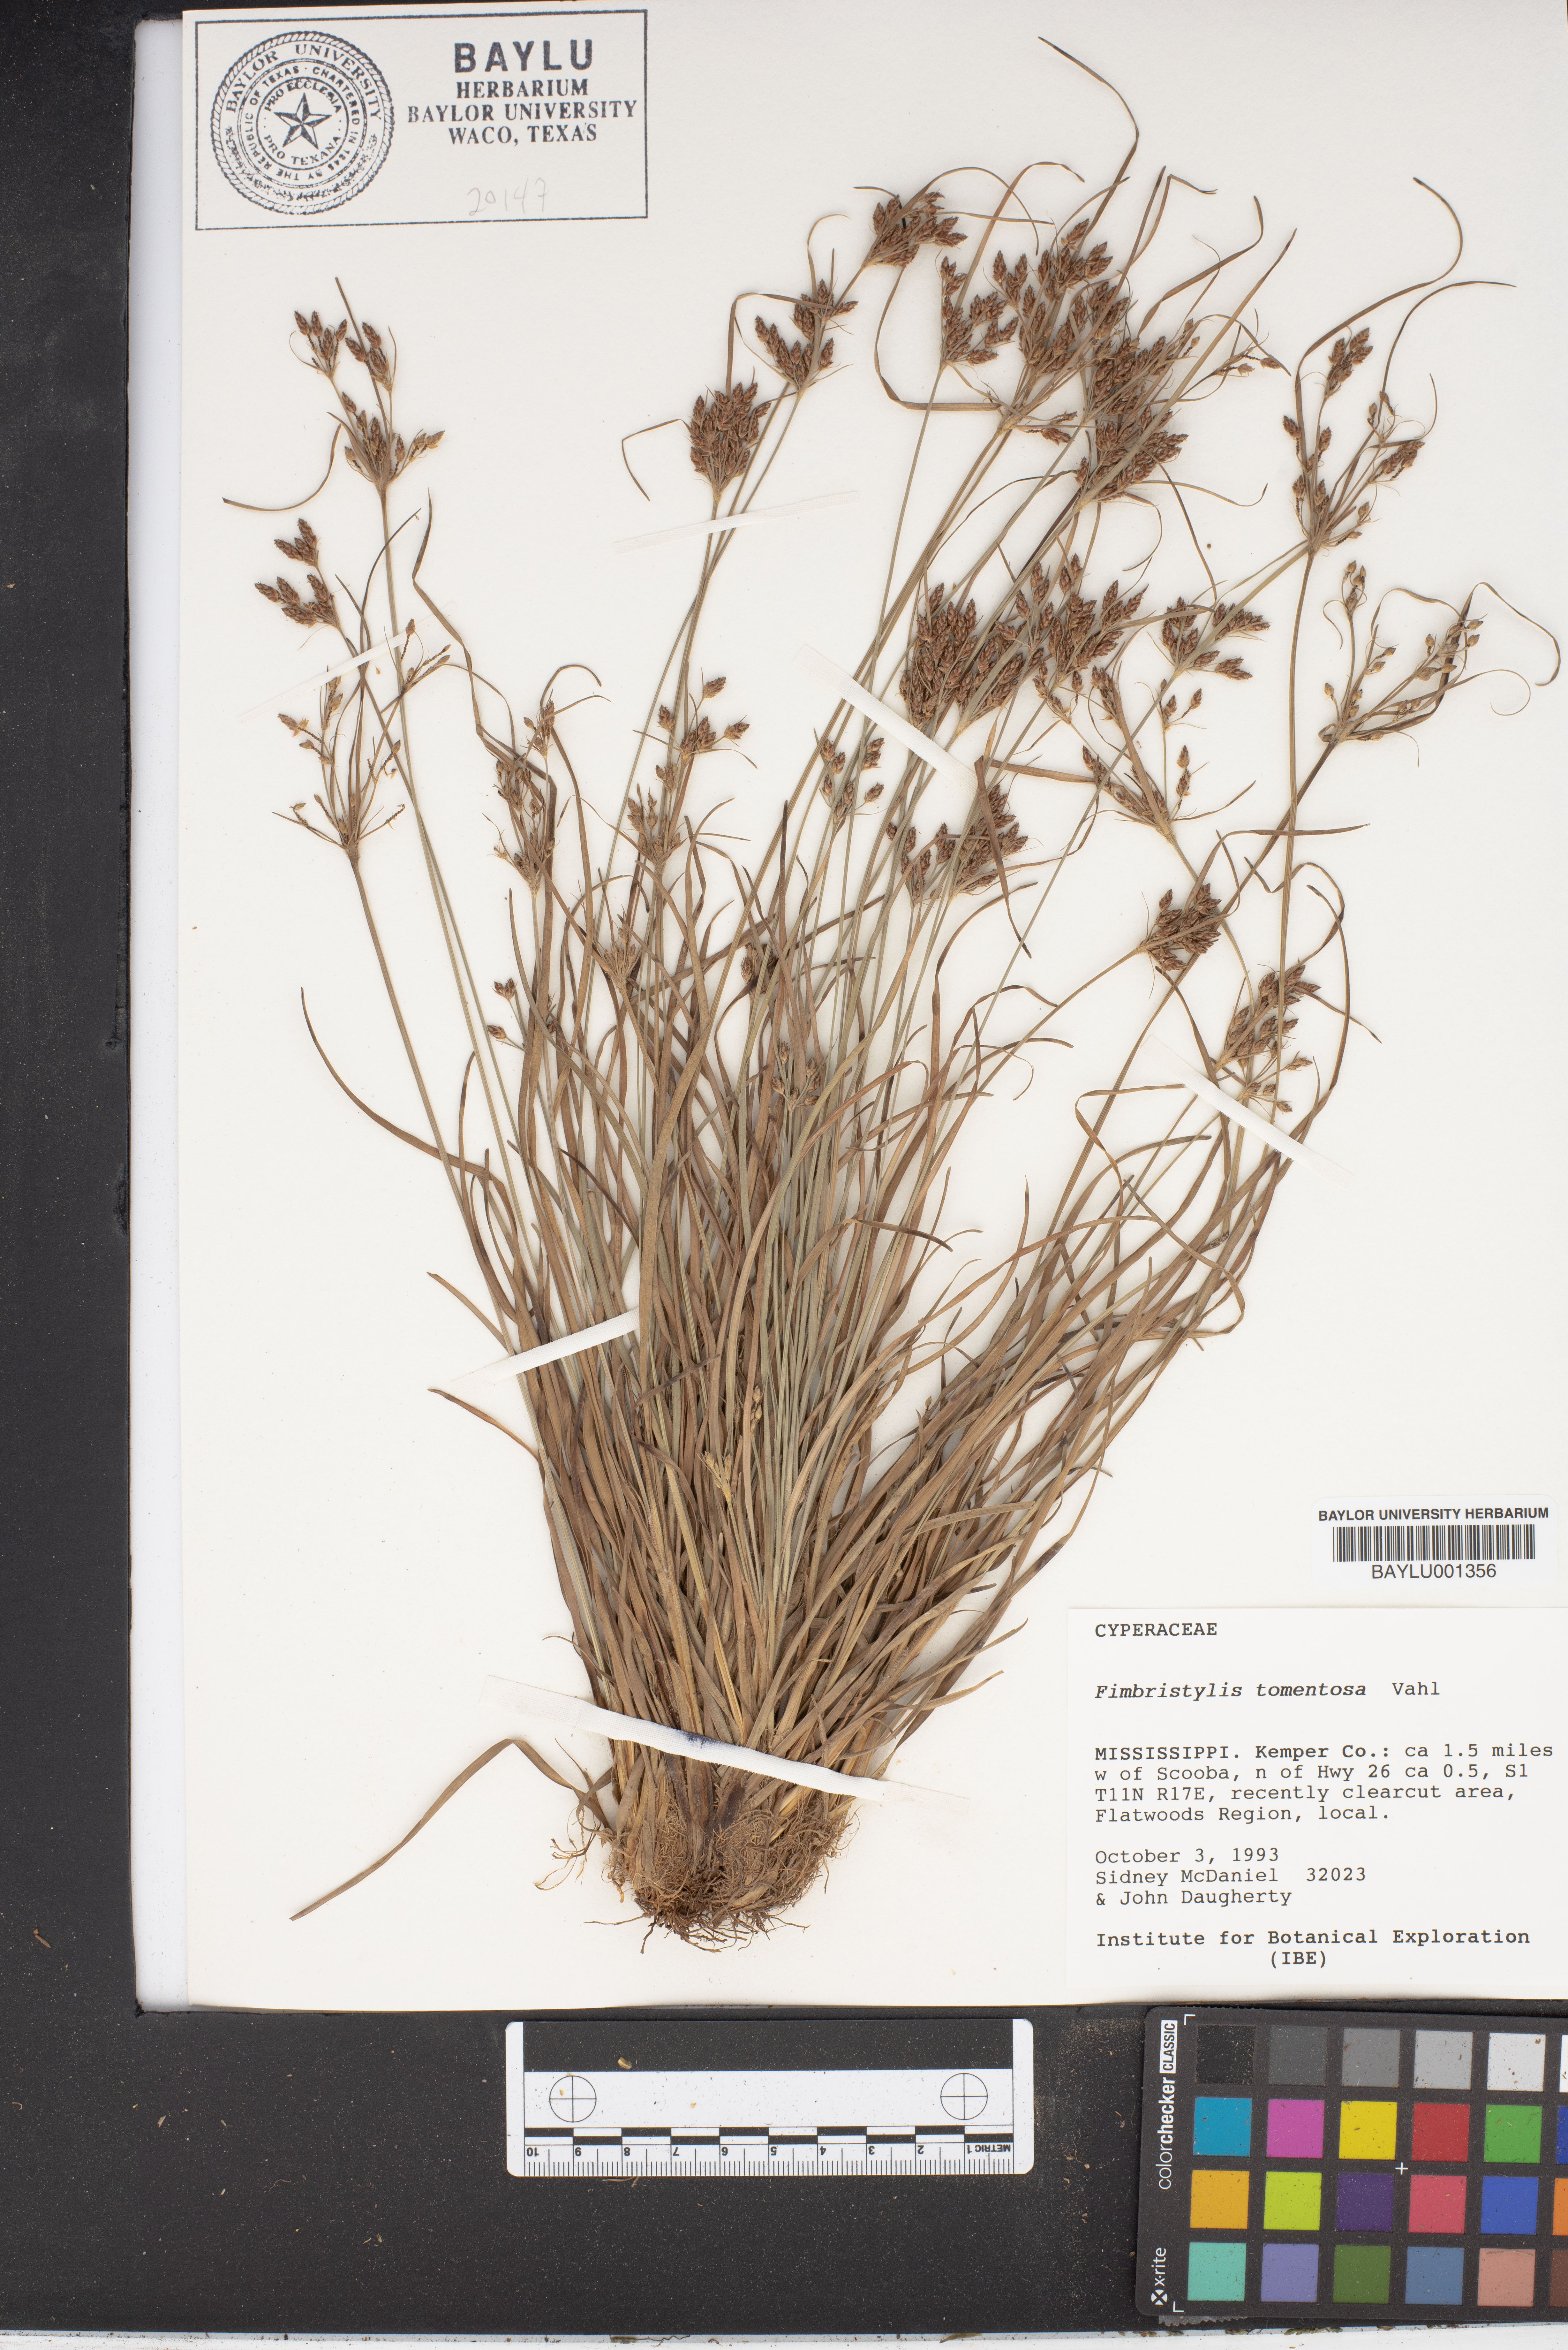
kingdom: Plantae
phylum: Tracheophyta
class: Liliopsida
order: Poales
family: Cyperaceae
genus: Fimbristylis
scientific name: Fimbristylis dichotoma
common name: Forked fimbry
